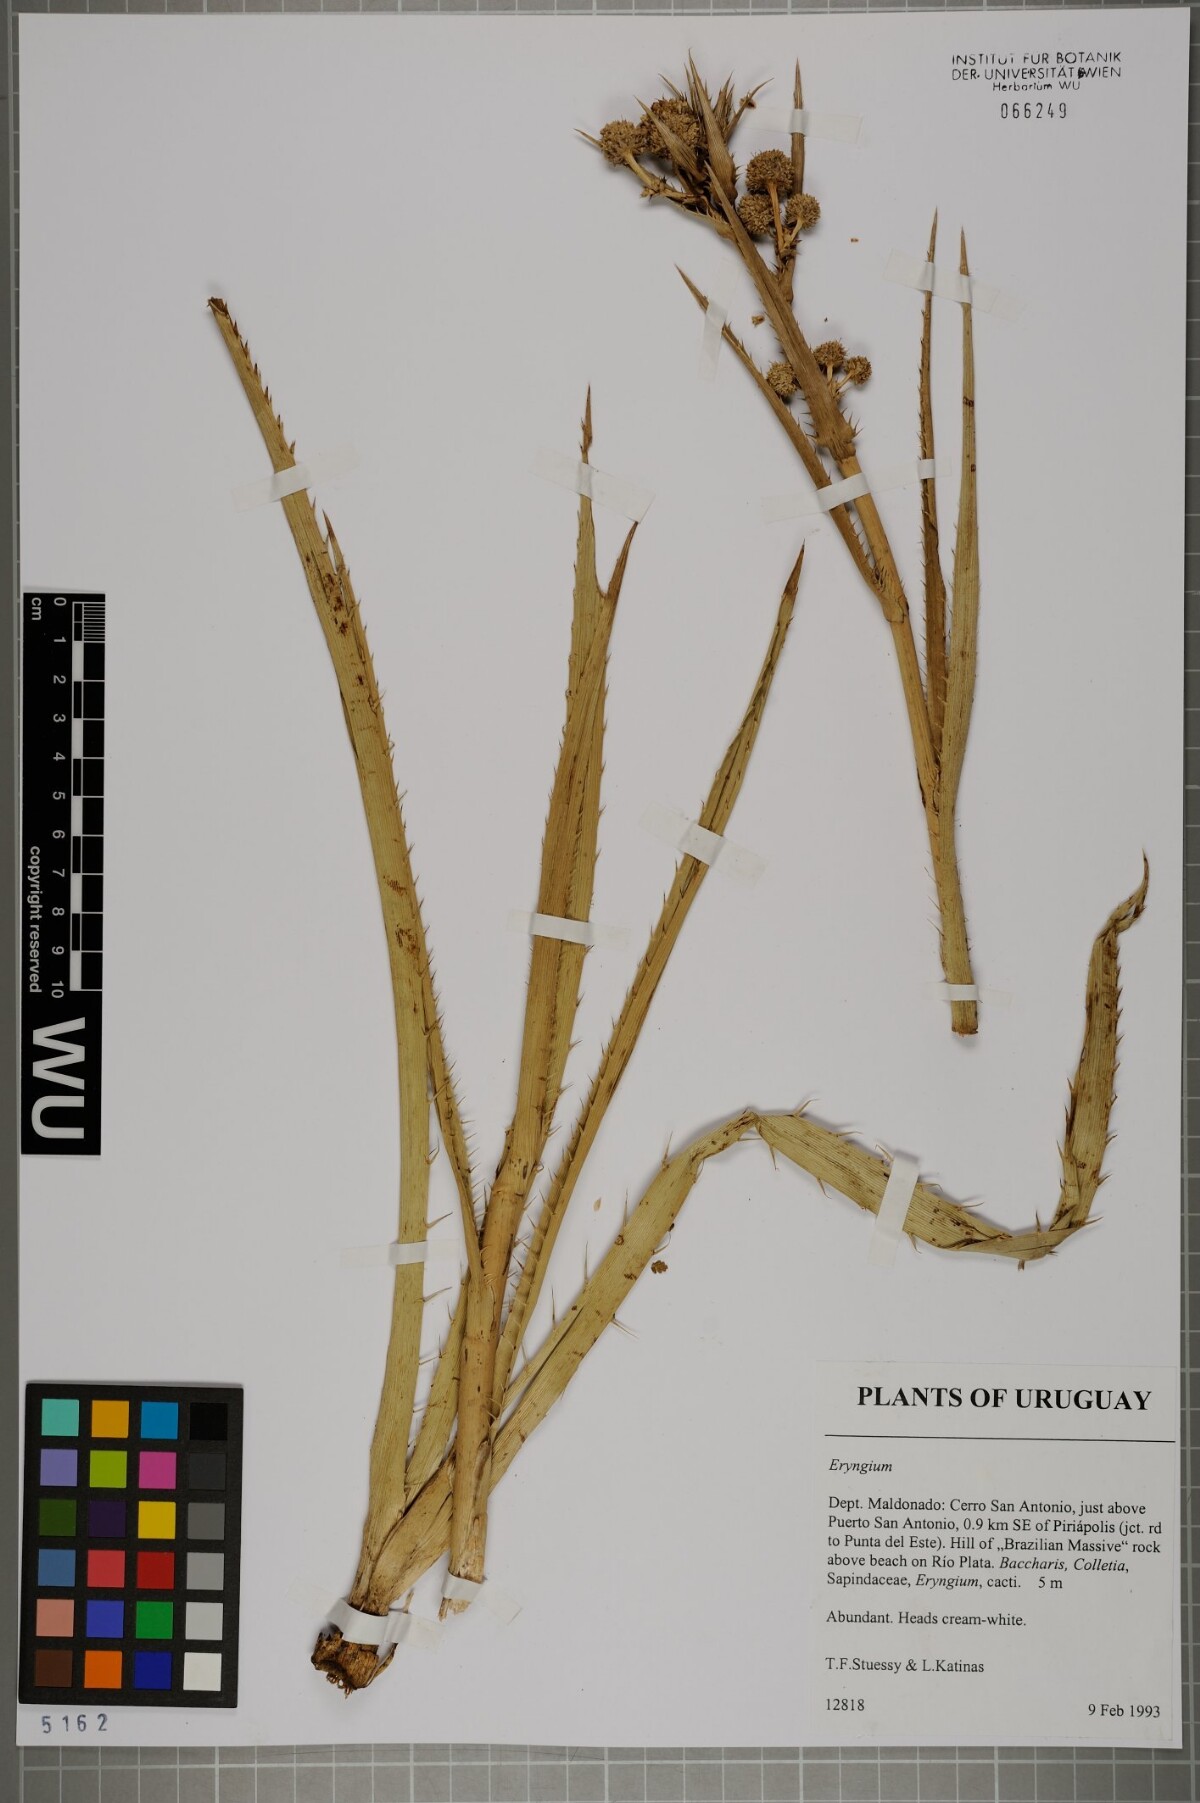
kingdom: Plantae
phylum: Tracheophyta
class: Magnoliopsida
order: Apiales
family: Apiaceae
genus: Eryngium
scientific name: Eryngium
